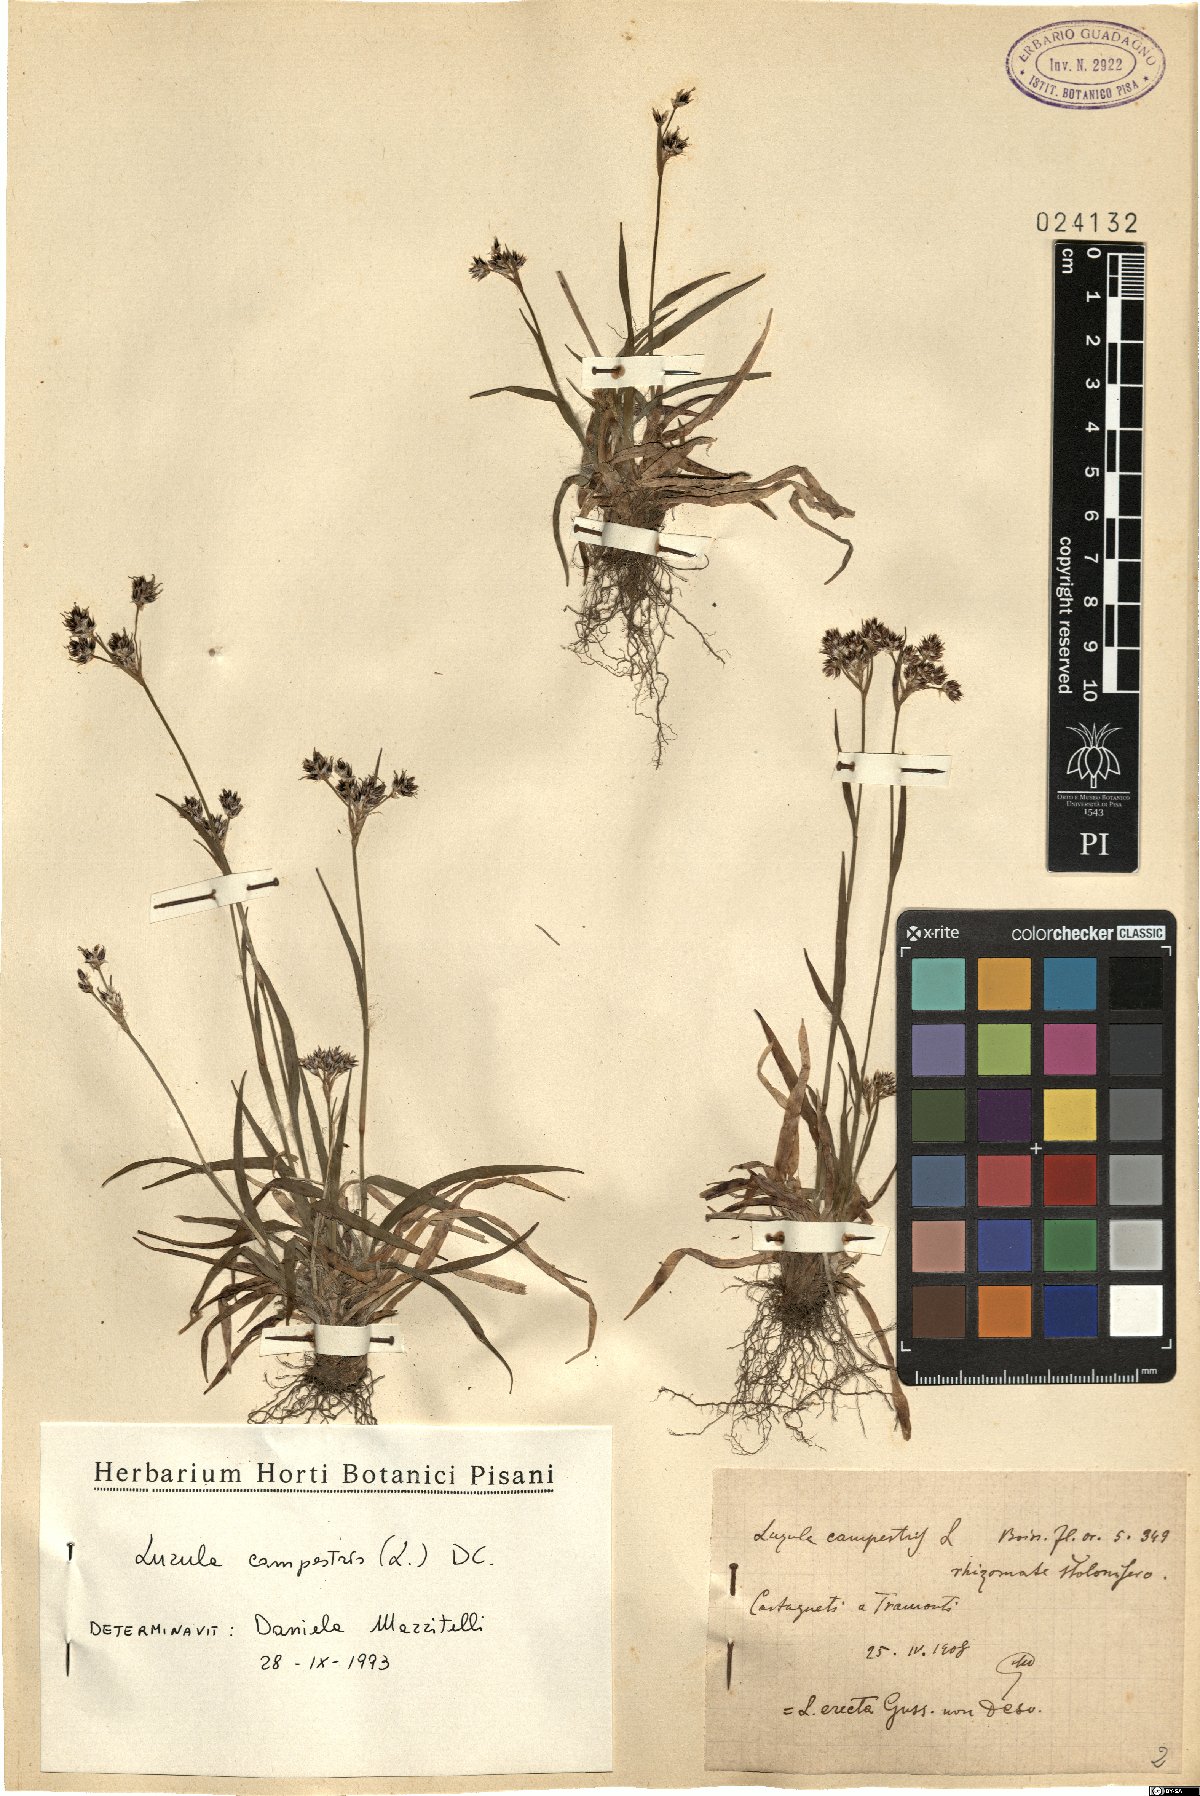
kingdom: Plantae
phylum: Tracheophyta
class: Liliopsida
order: Poales
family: Juncaceae
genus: Luzula
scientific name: Luzula campestris
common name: Field wood-rush
